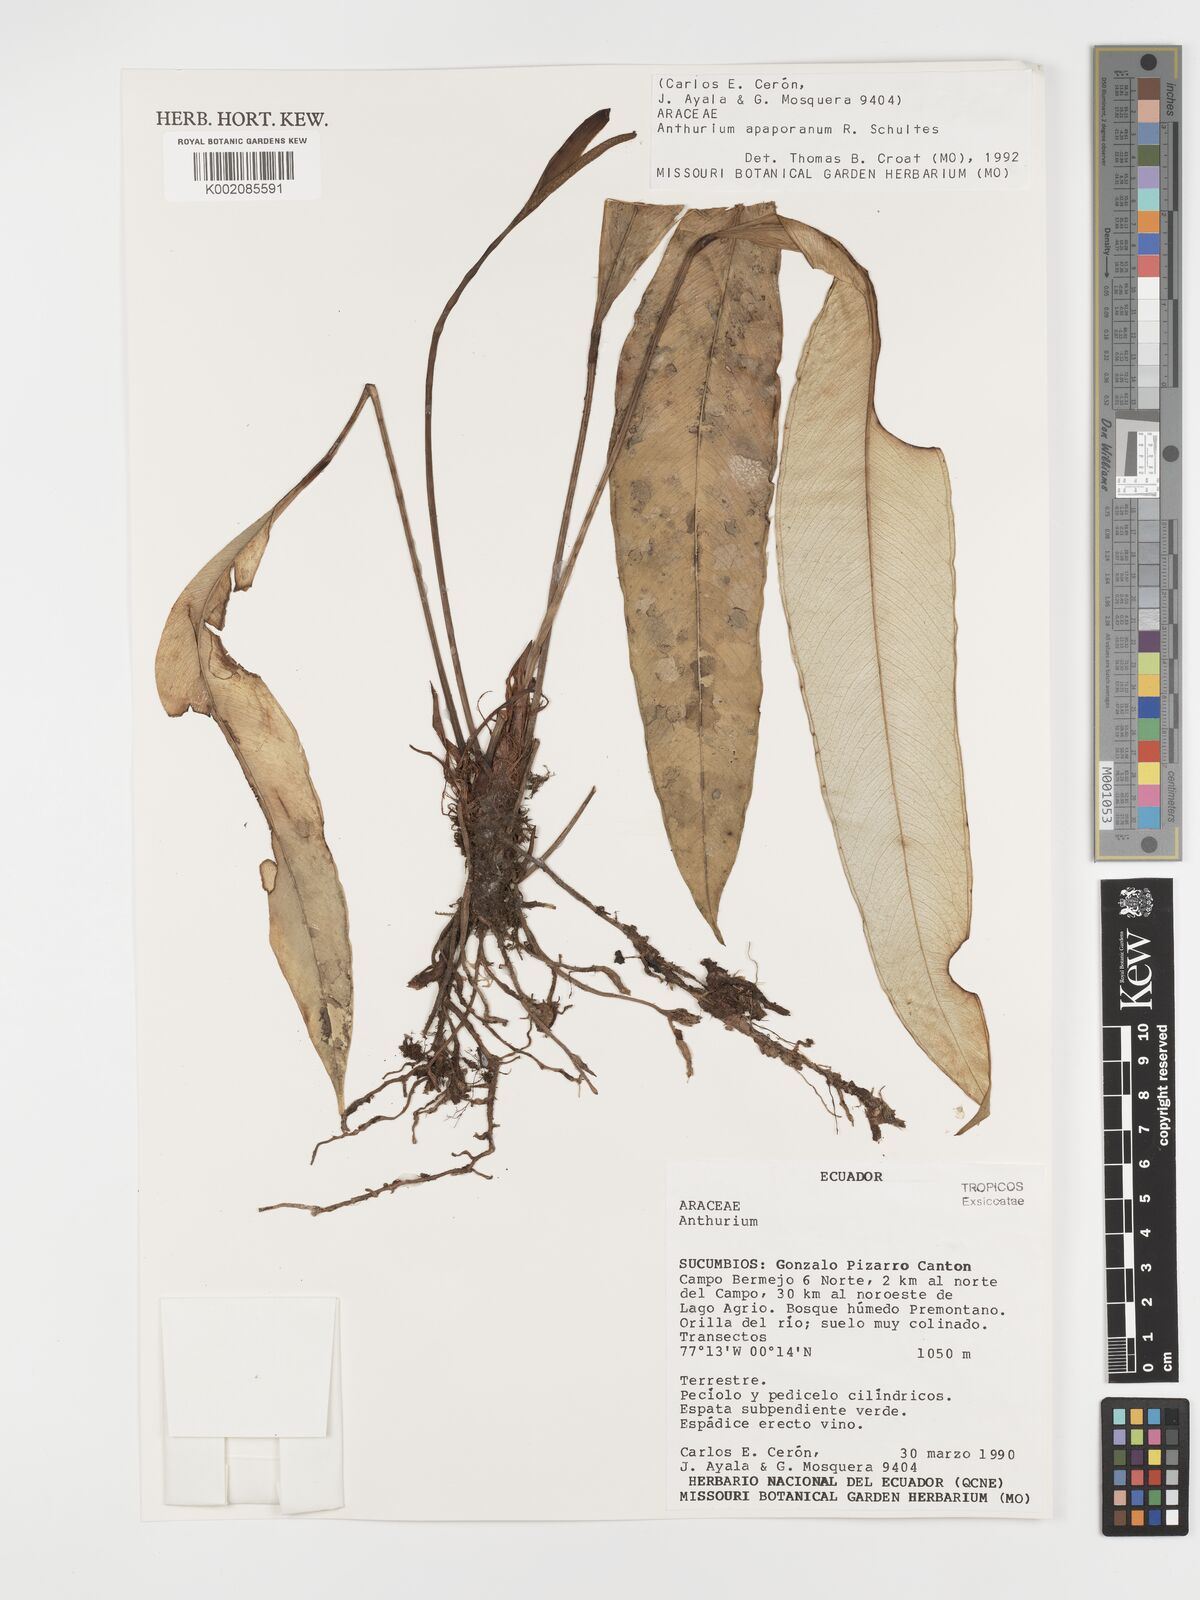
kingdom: Plantae
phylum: Tracheophyta
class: Liliopsida
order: Alismatales
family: Araceae
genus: Anthurium
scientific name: Anthurium apaporanum
